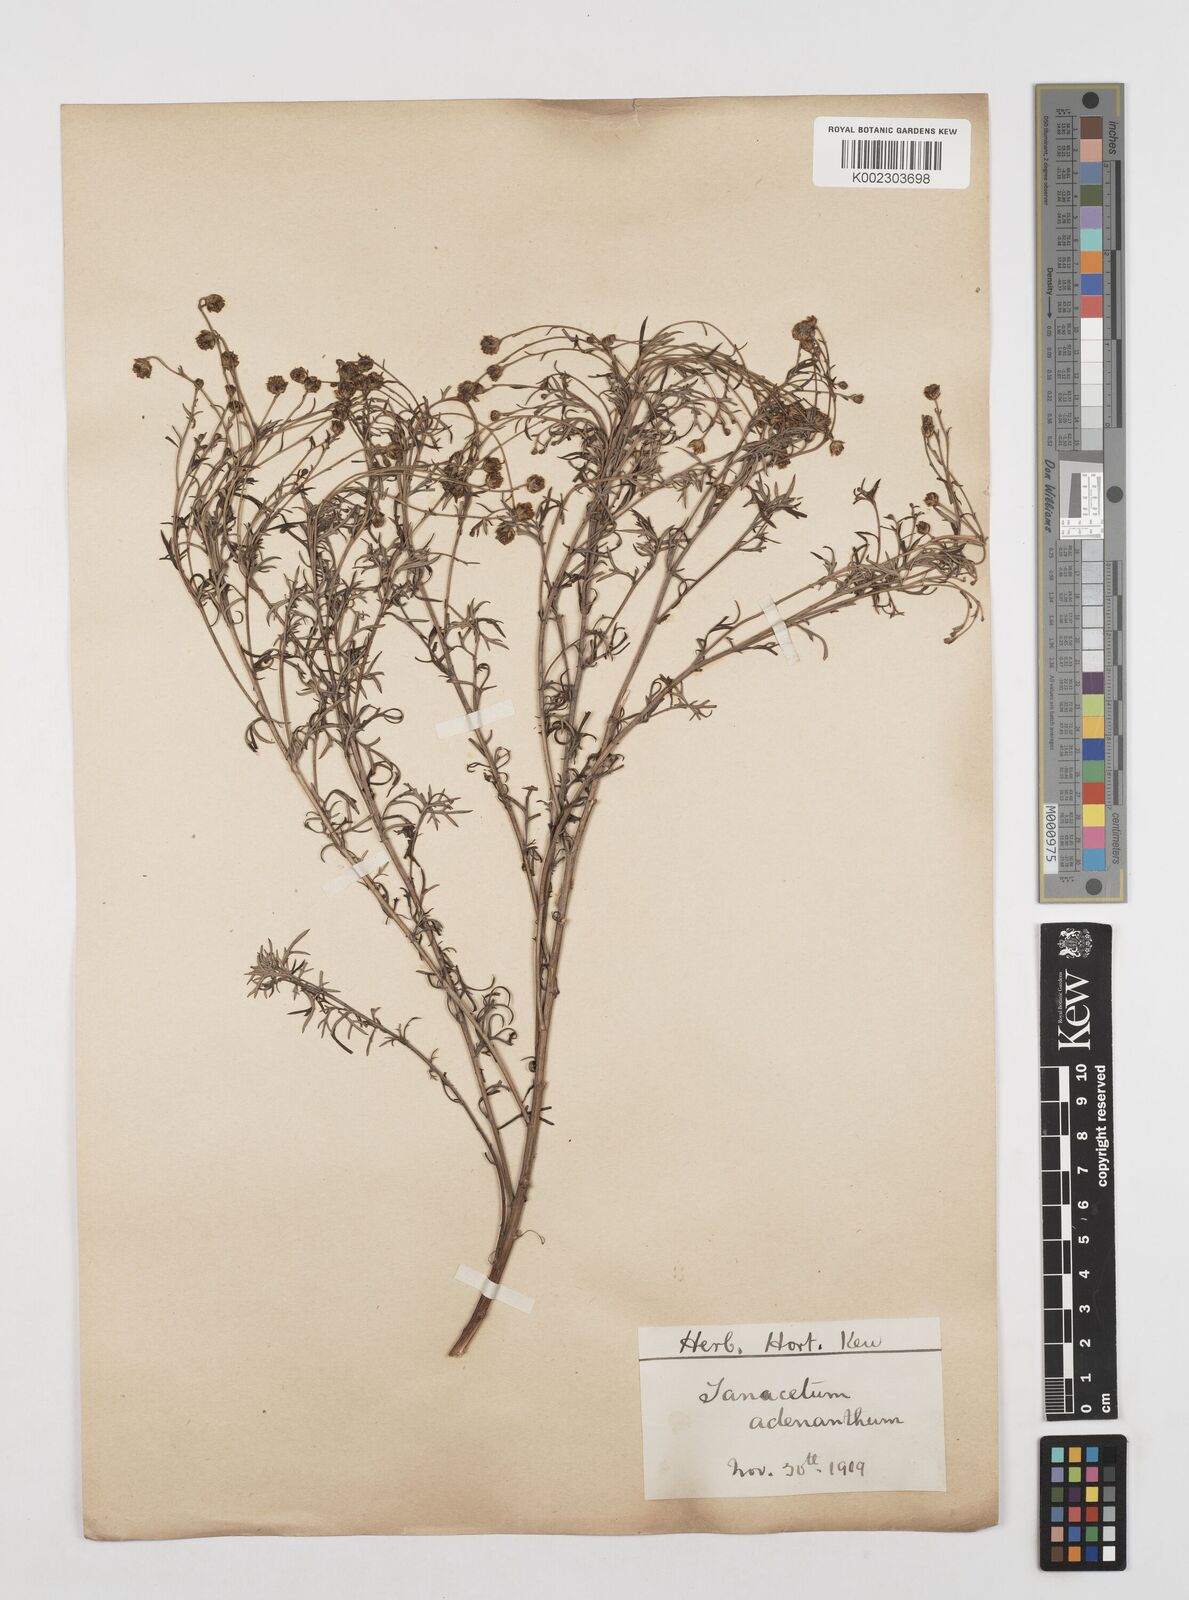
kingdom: Plantae
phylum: Tracheophyta
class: Magnoliopsida
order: Asterales
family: Asteraceae
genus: Tanacetum
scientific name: Tanacetum
